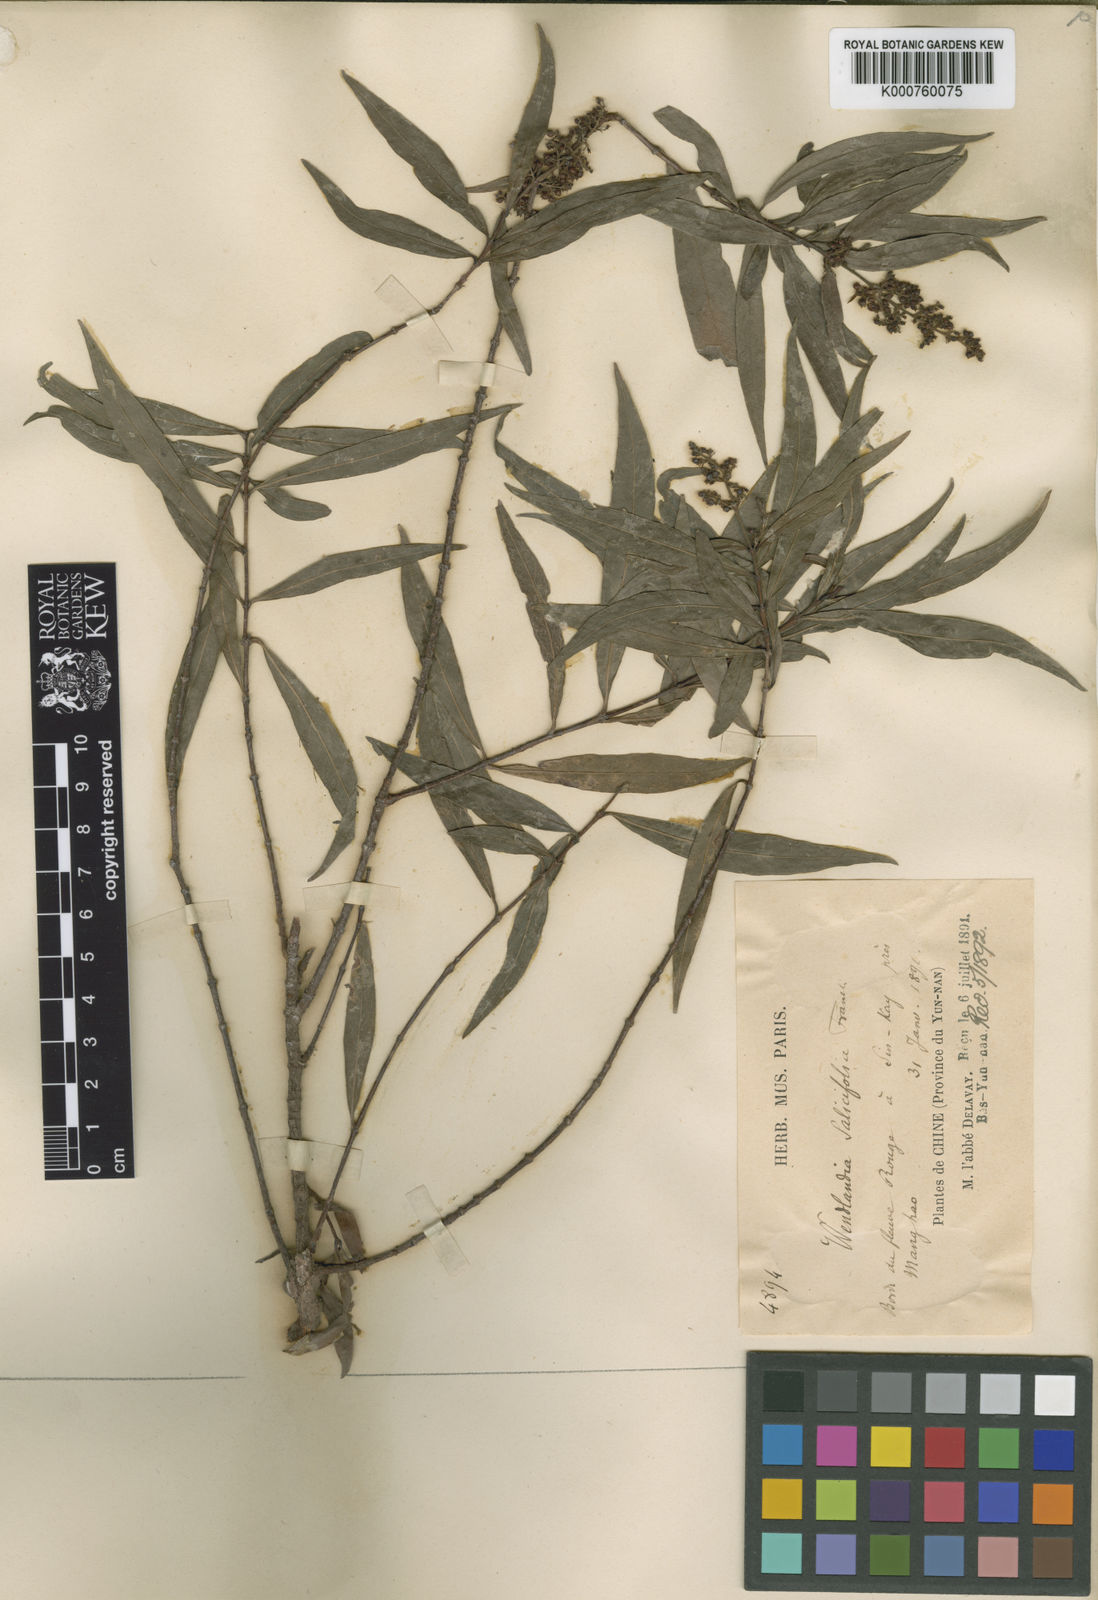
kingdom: Plantae
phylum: Tracheophyta
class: Magnoliopsida
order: Gentianales
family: Rubiaceae
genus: Wendlandia
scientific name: Wendlandia
